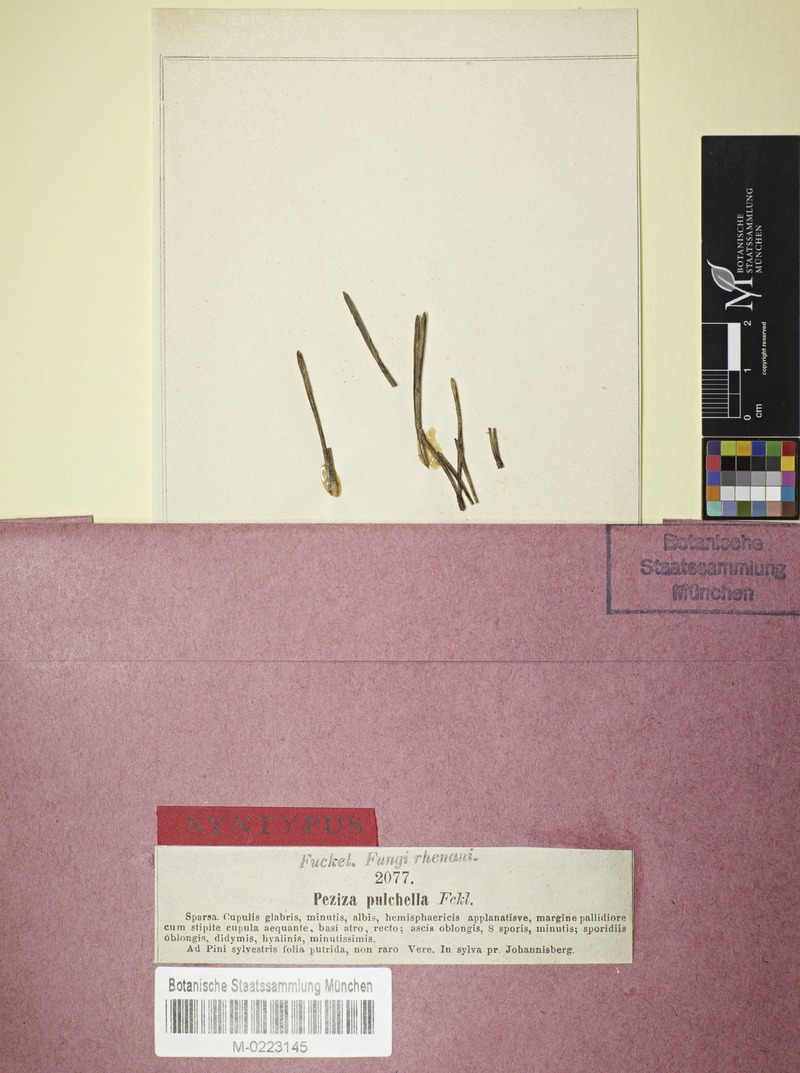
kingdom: Fungi
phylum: Ascomycota
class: Leotiomycetes
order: Helotiales
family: Hyaloscyphaceae
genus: Cistella
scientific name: Cistella acuum
